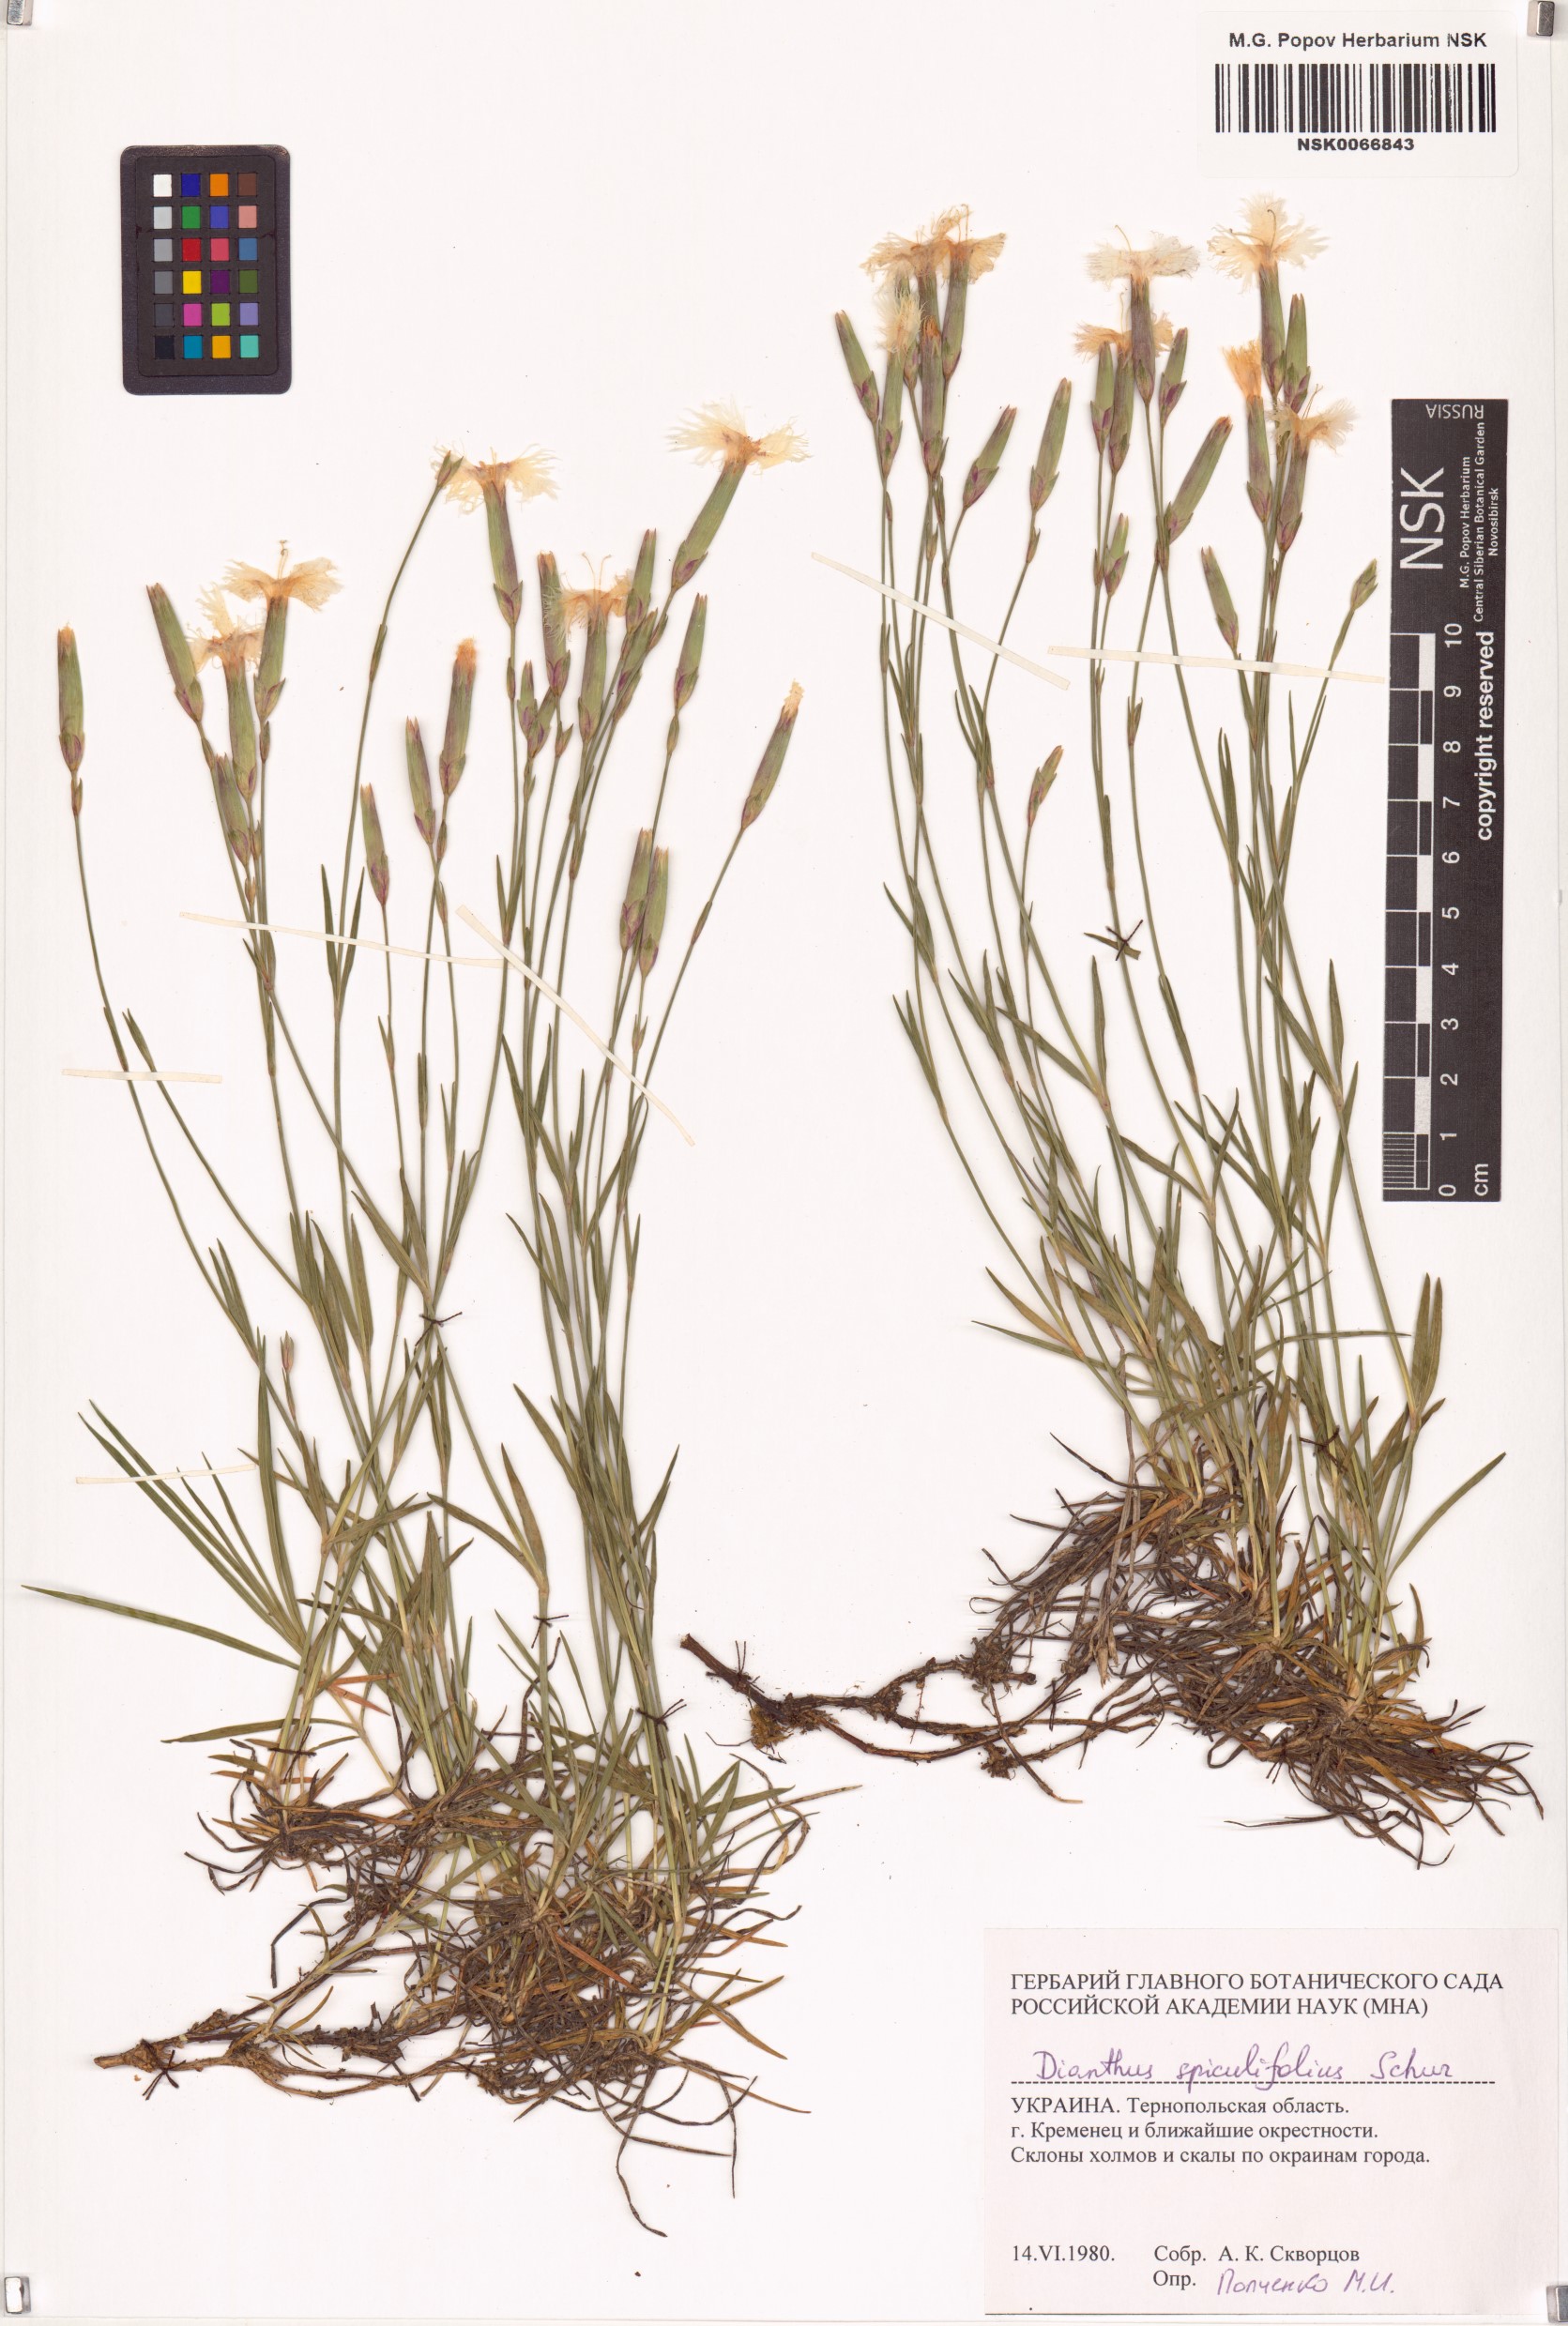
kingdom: Plantae
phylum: Tracheophyta
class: Magnoliopsida
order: Caryophyllales
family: Caryophyllaceae
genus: Dianthus
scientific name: Dianthus spiculifolius
